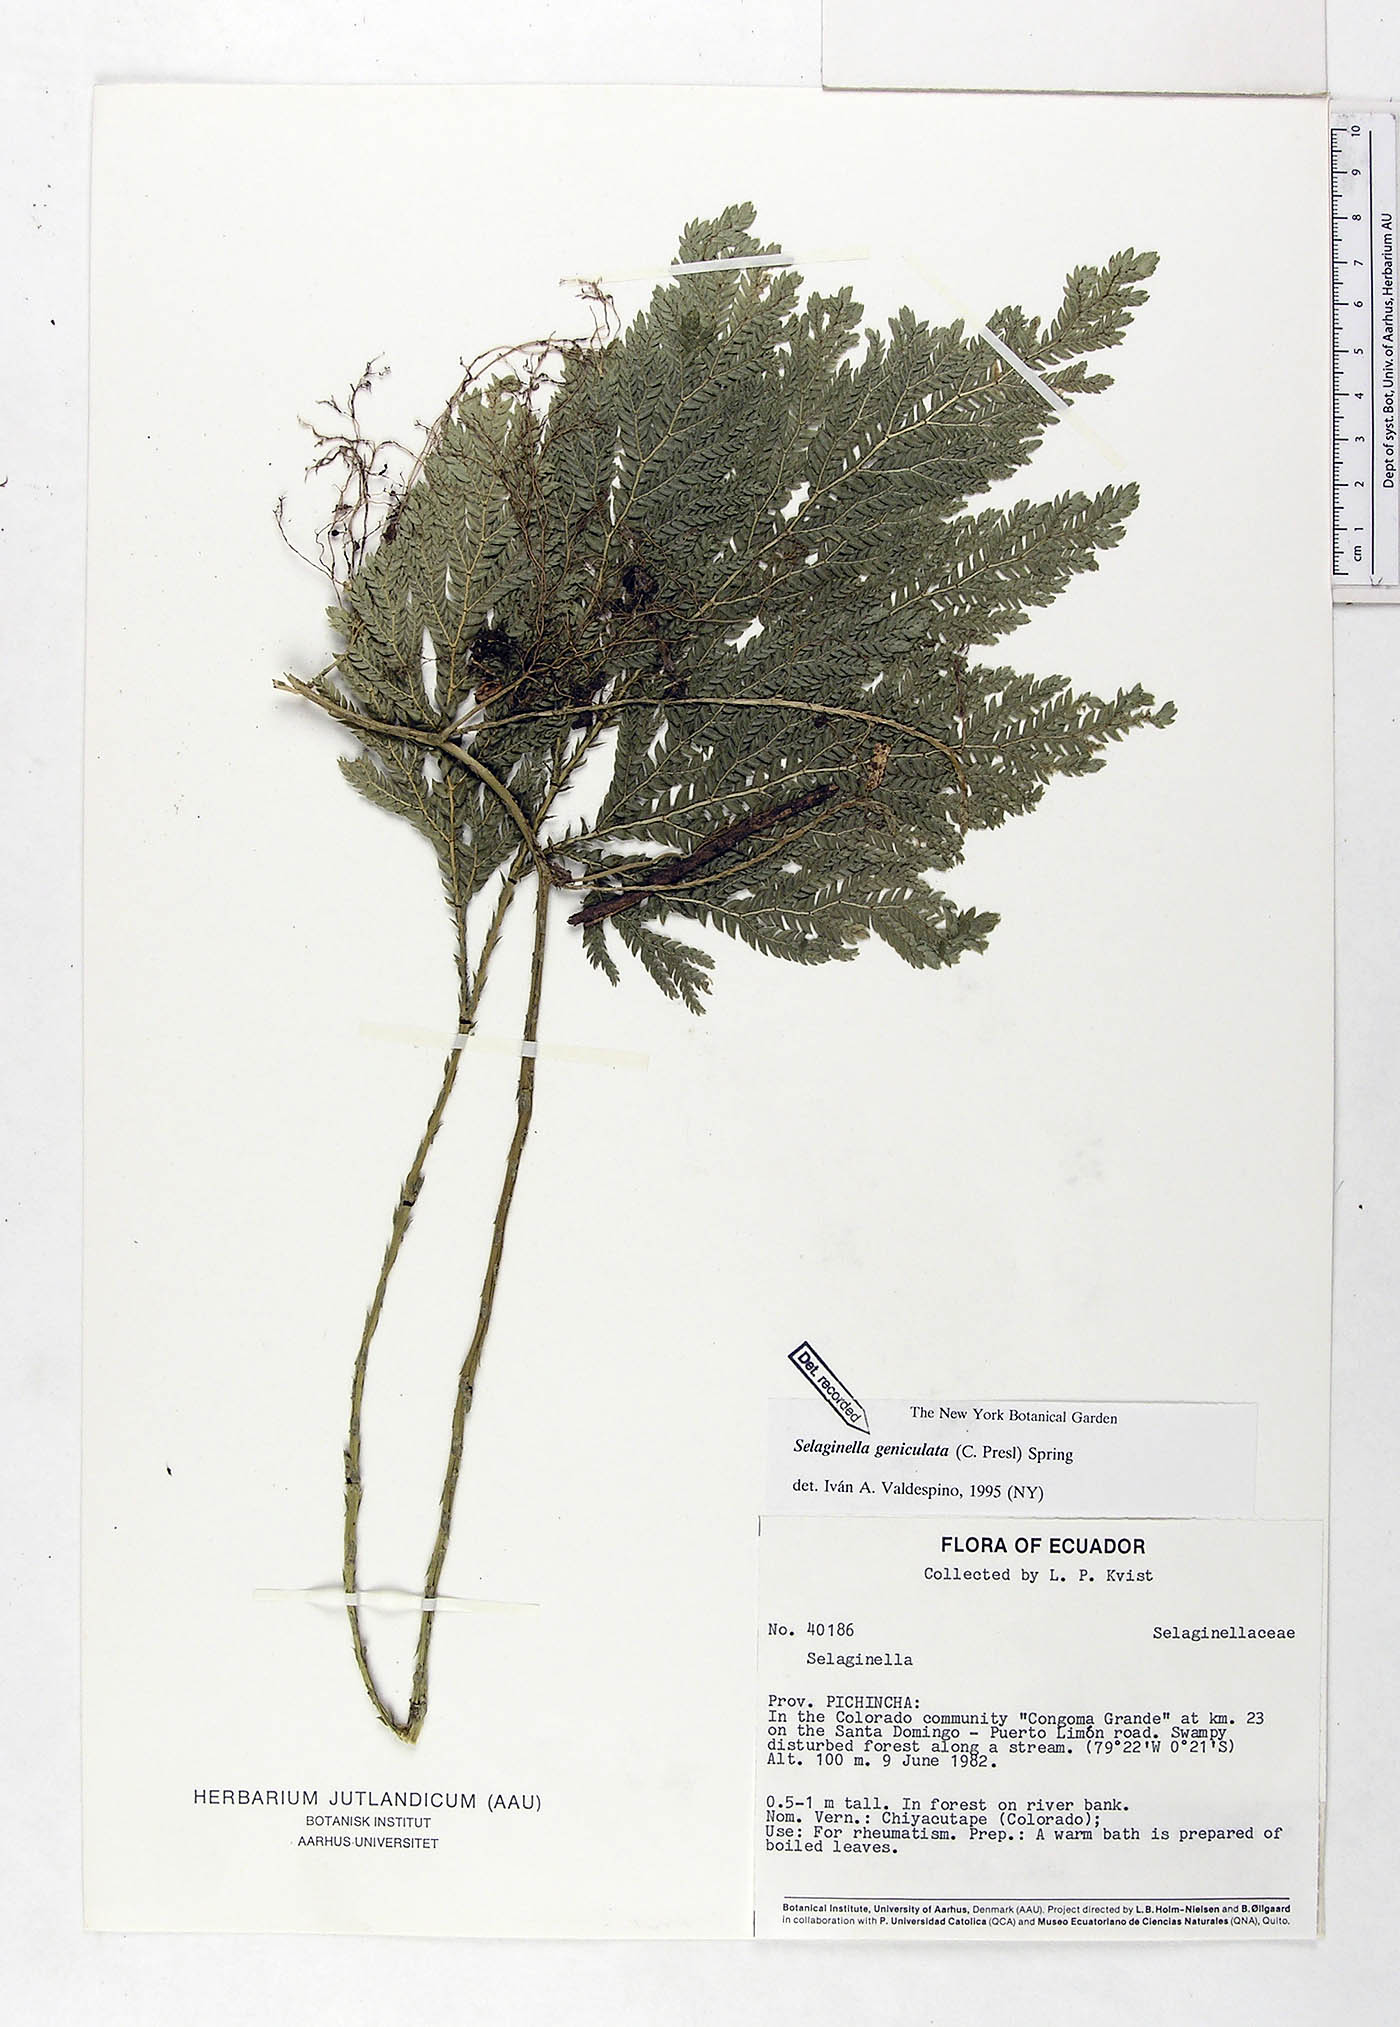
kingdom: Plantae
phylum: Tracheophyta
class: Lycopodiopsida
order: Selaginellales
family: Selaginellaceae
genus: Selaginella
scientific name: Selaginella geniculata
